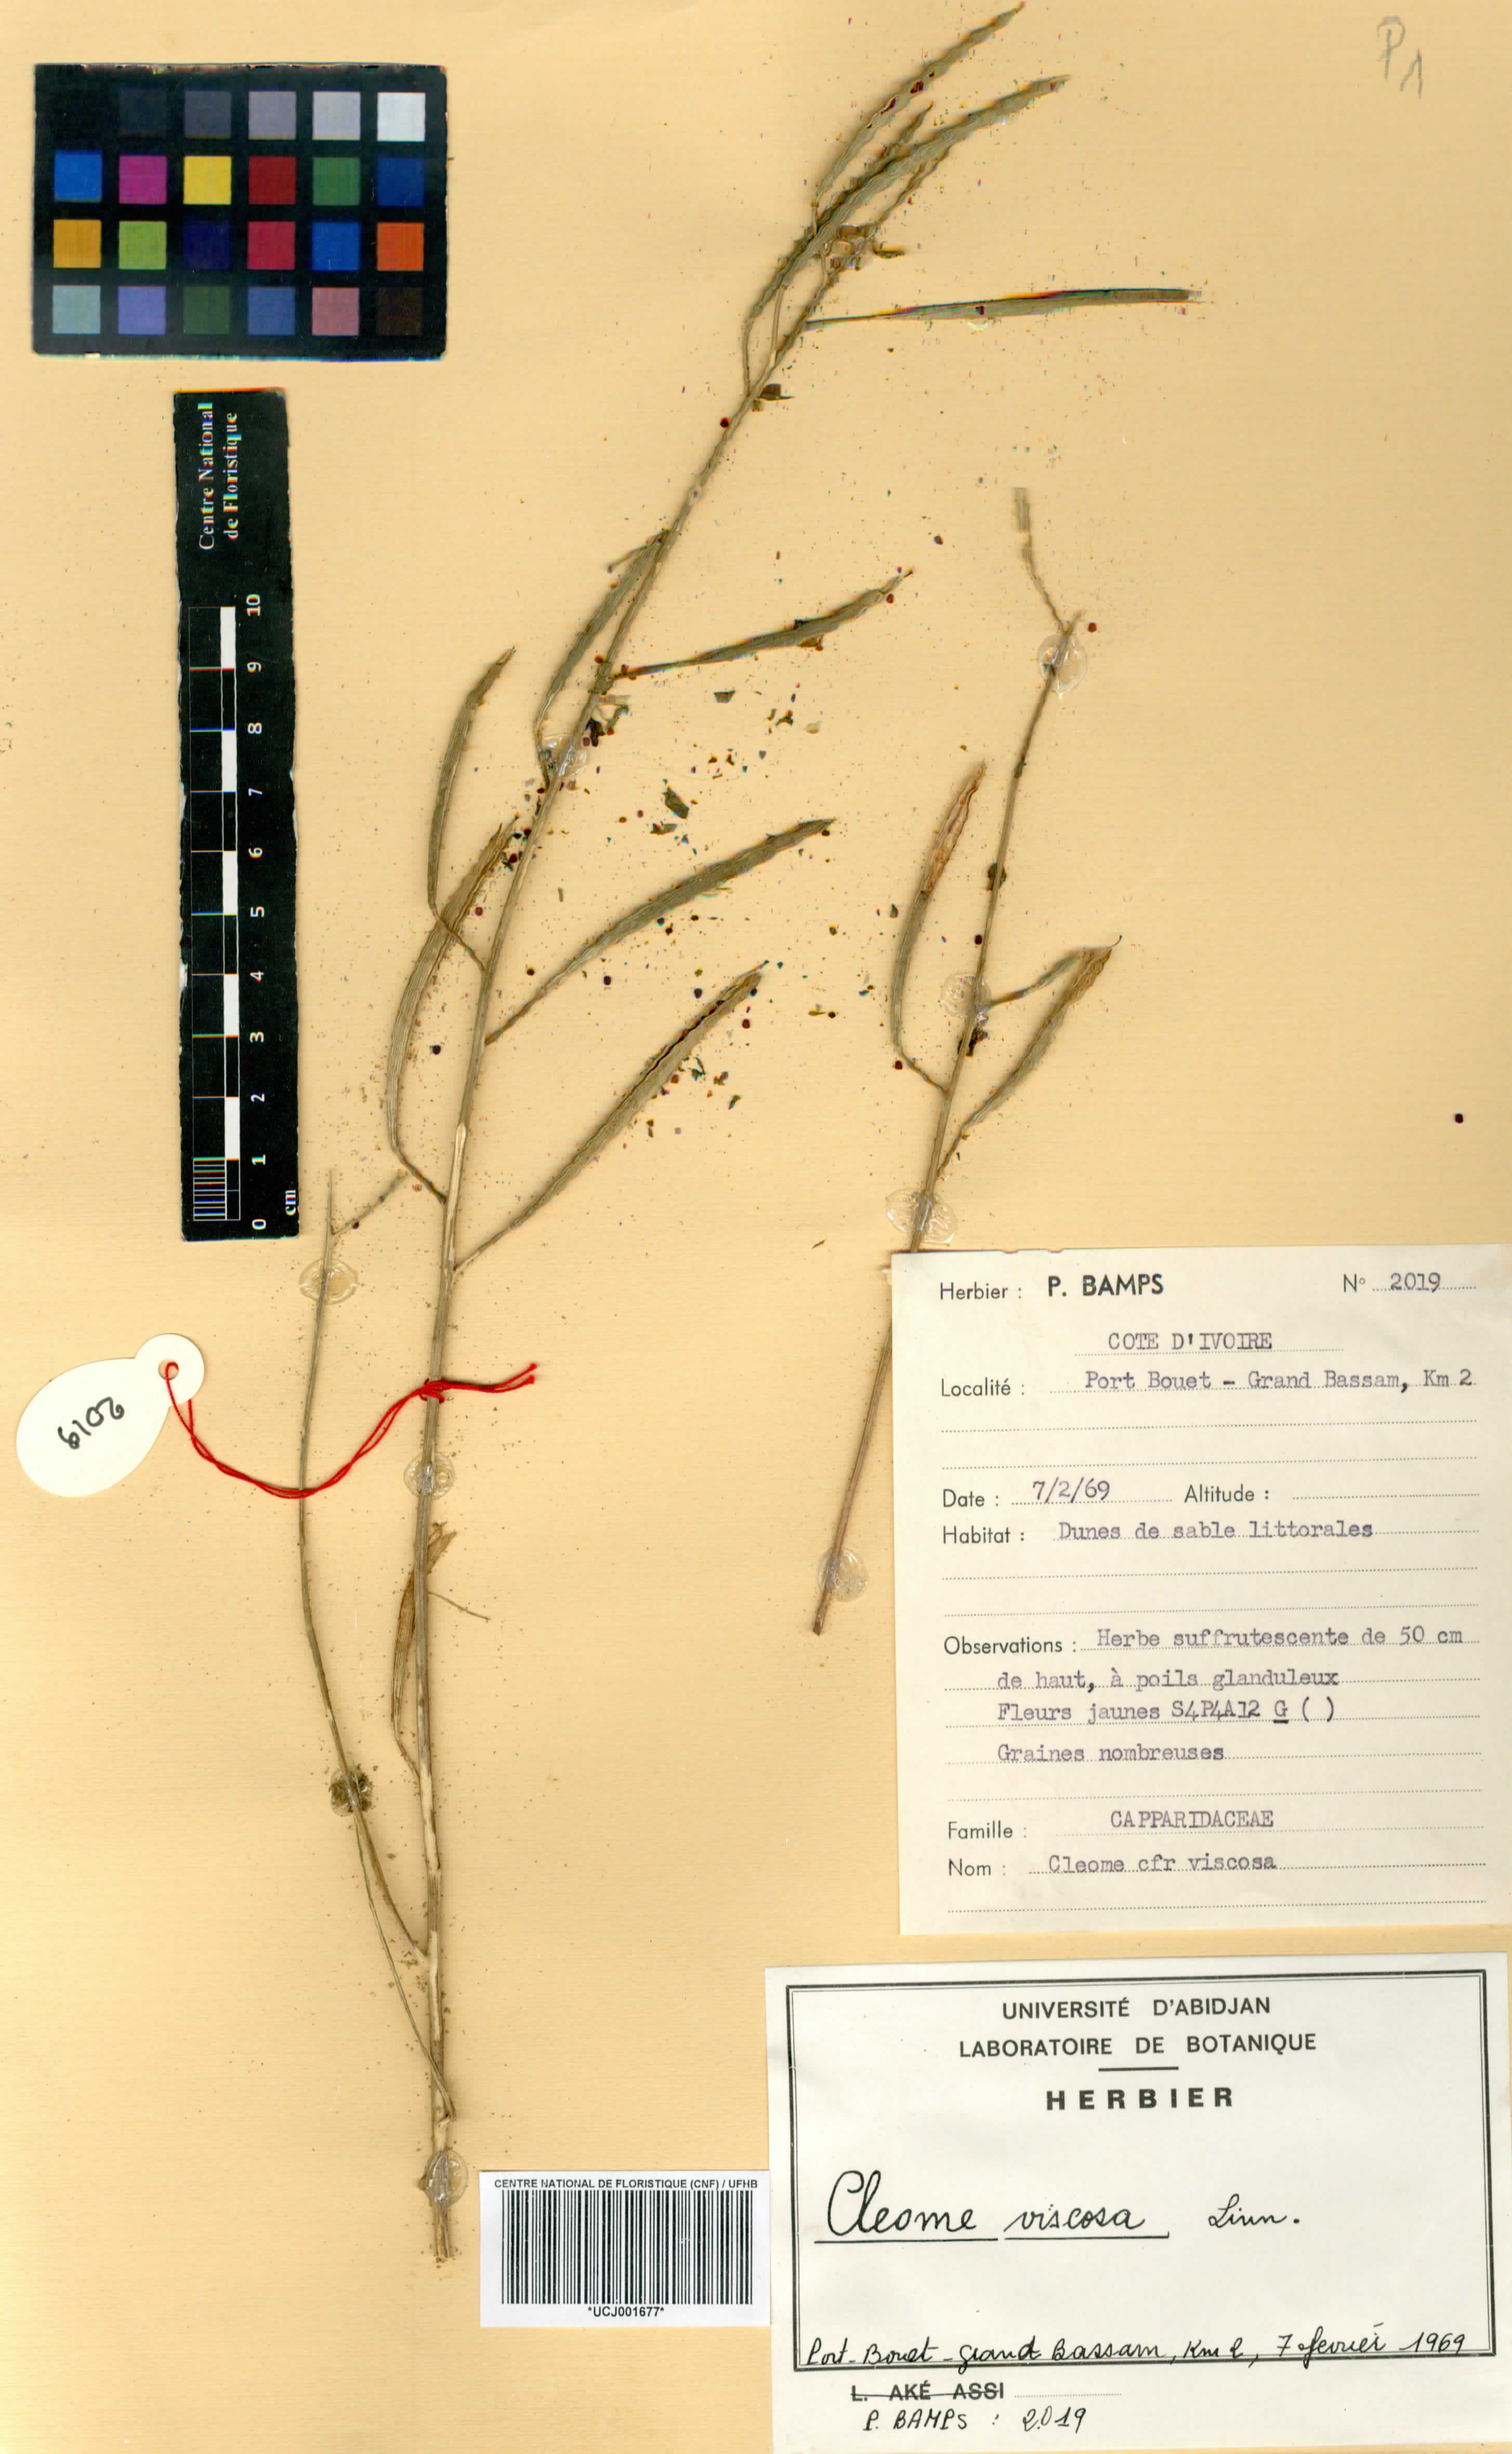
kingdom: Plantae
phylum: Tracheophyta
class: Magnoliopsida
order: Brassicales
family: Cleomaceae
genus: Arivela
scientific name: Arivela viscosa
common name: Asian spiderflower
